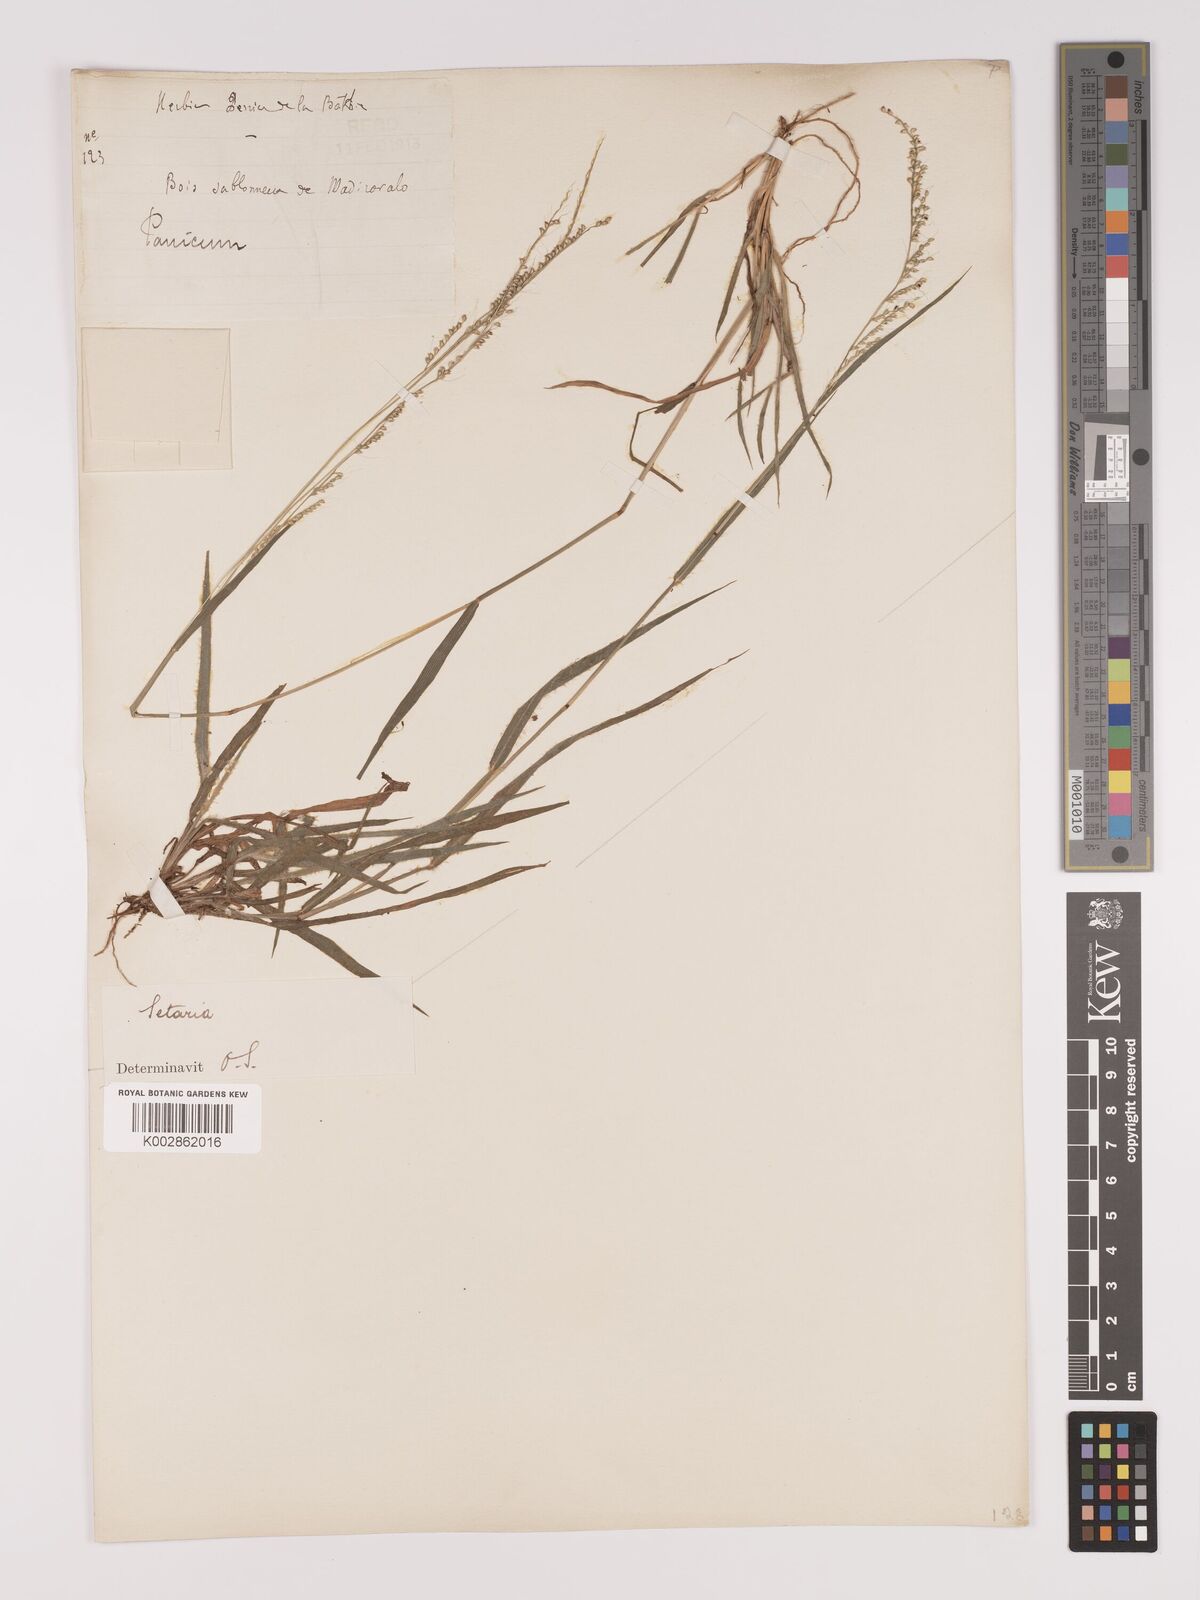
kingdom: Plantae
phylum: Tracheophyta
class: Liliopsida
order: Poales
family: Poaceae
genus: Setaria
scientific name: Setaria scottii
